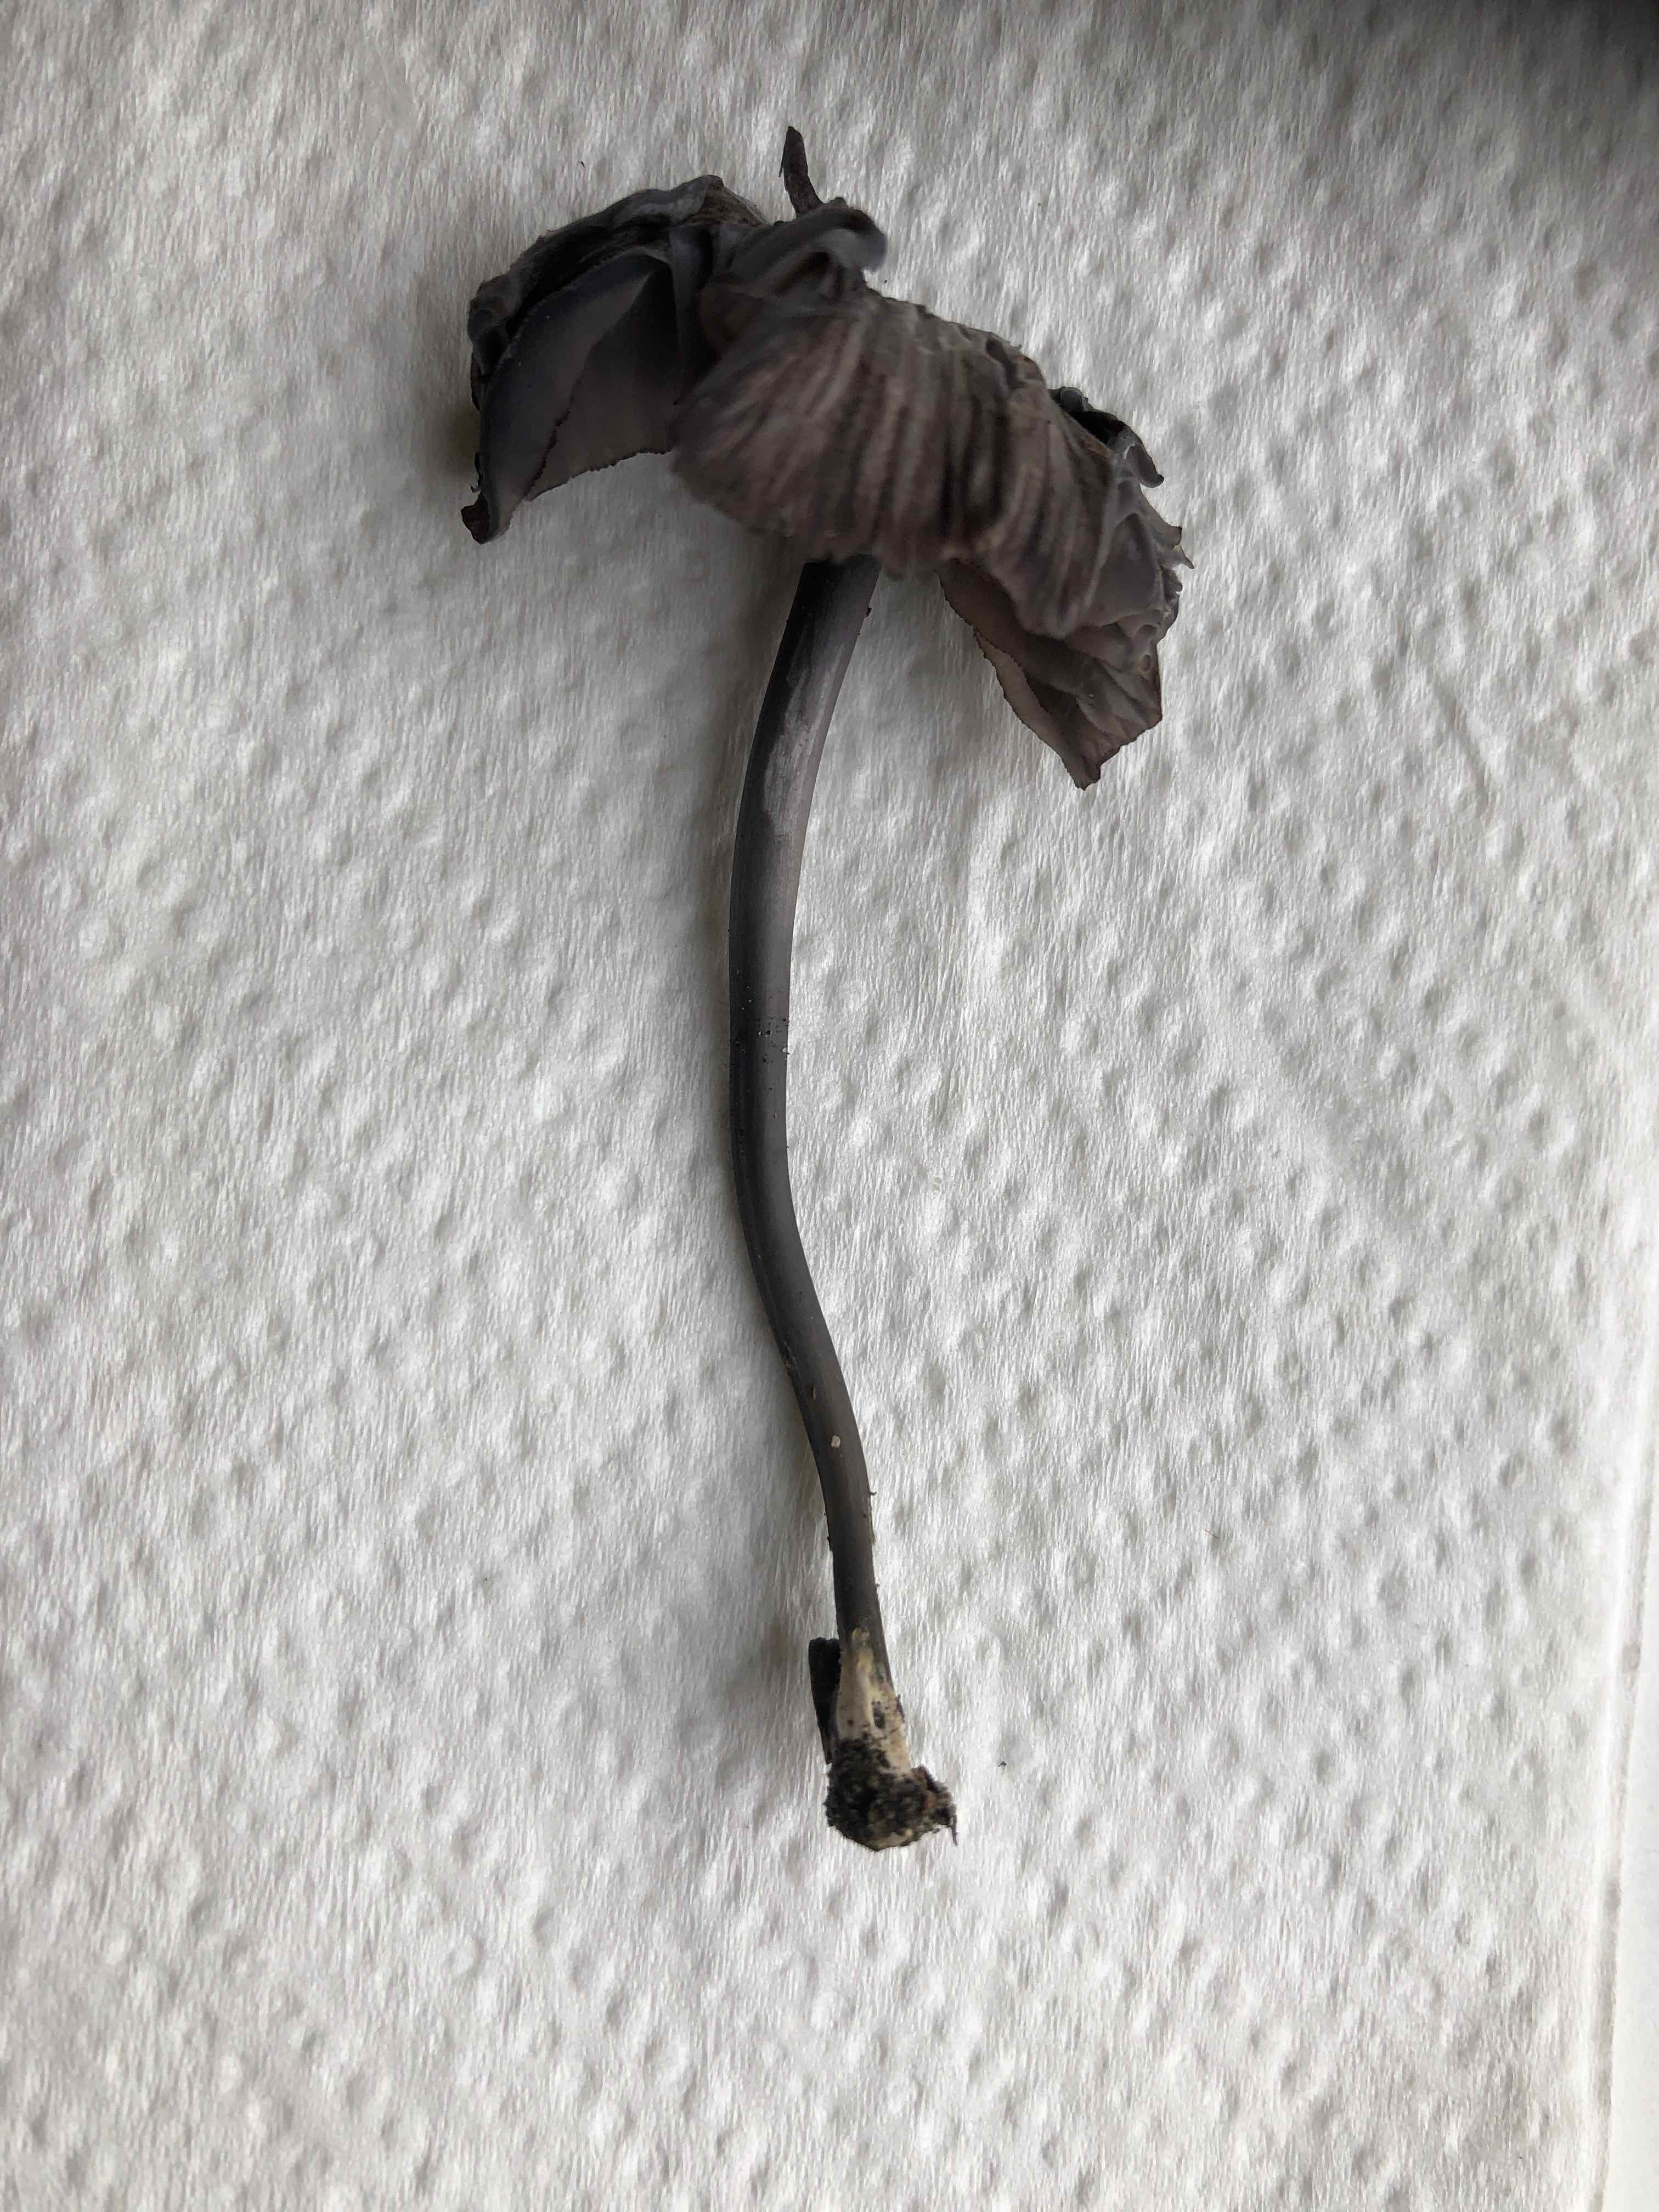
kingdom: Fungi
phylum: Basidiomycota
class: Agaricomycetes
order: Agaricales
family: Entolomataceae
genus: Entoloma
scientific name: Entoloma pseudocyanulum
